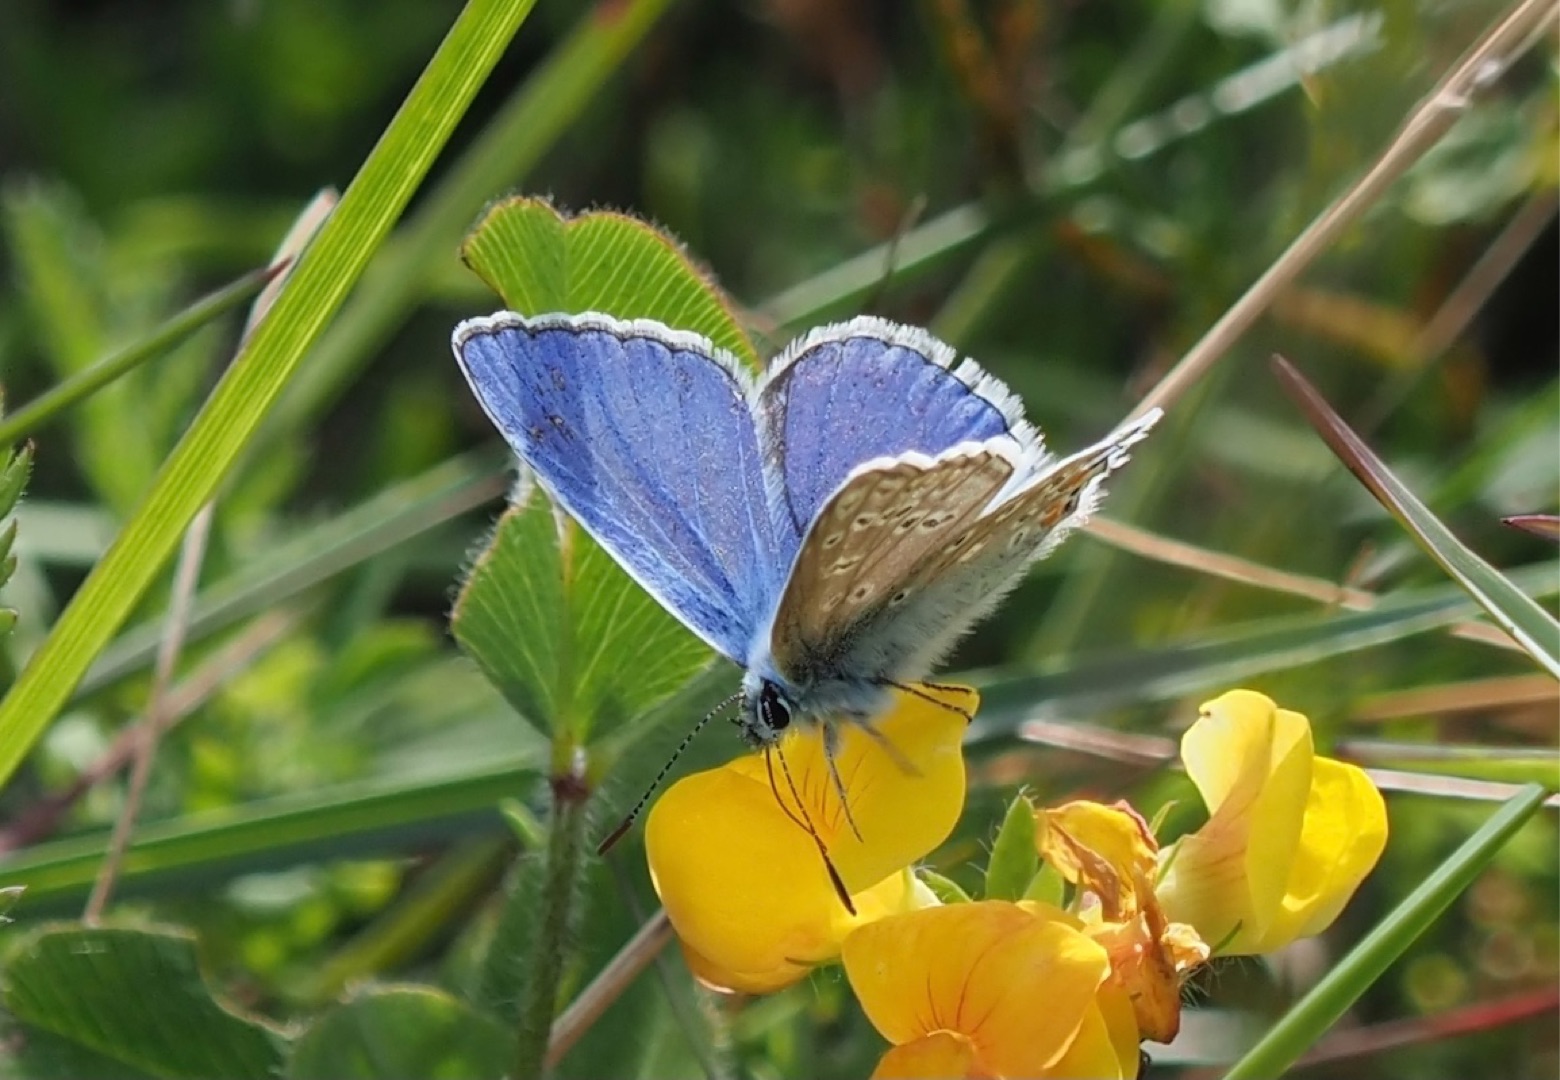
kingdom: Animalia
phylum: Arthropoda
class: Insecta
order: Lepidoptera
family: Lycaenidae
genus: Polyommatus
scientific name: Polyommatus icarus
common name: Almindelig blåfugl
